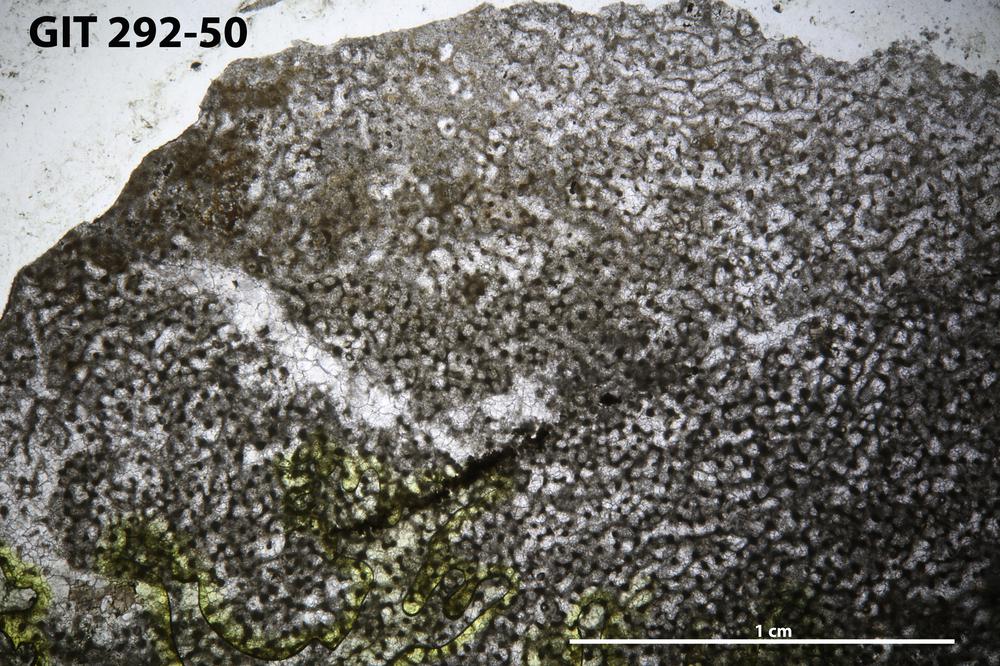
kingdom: Animalia
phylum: Porifera
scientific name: Porifera
